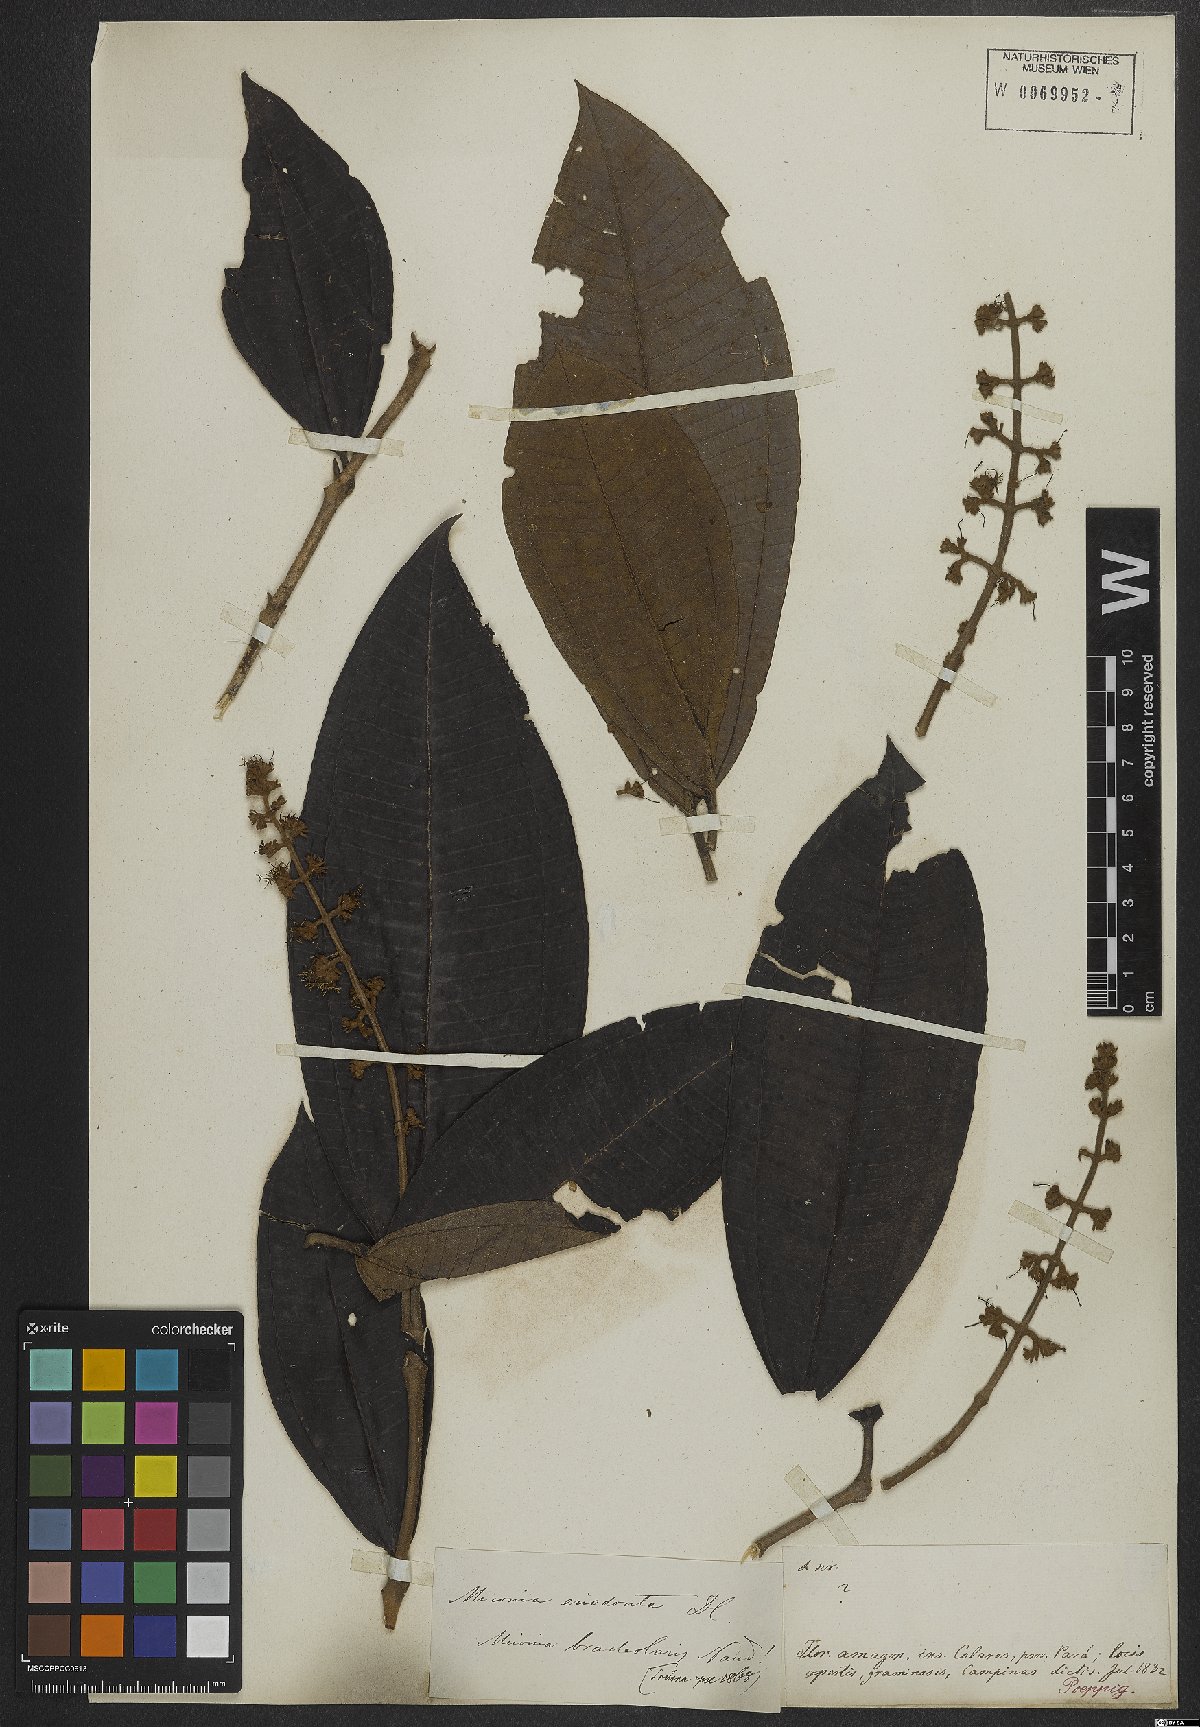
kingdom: Plantae
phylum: Tracheophyta
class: Magnoliopsida
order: Myrtales
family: Melastomataceae
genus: Miconia
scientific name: Miconia eriodonta
